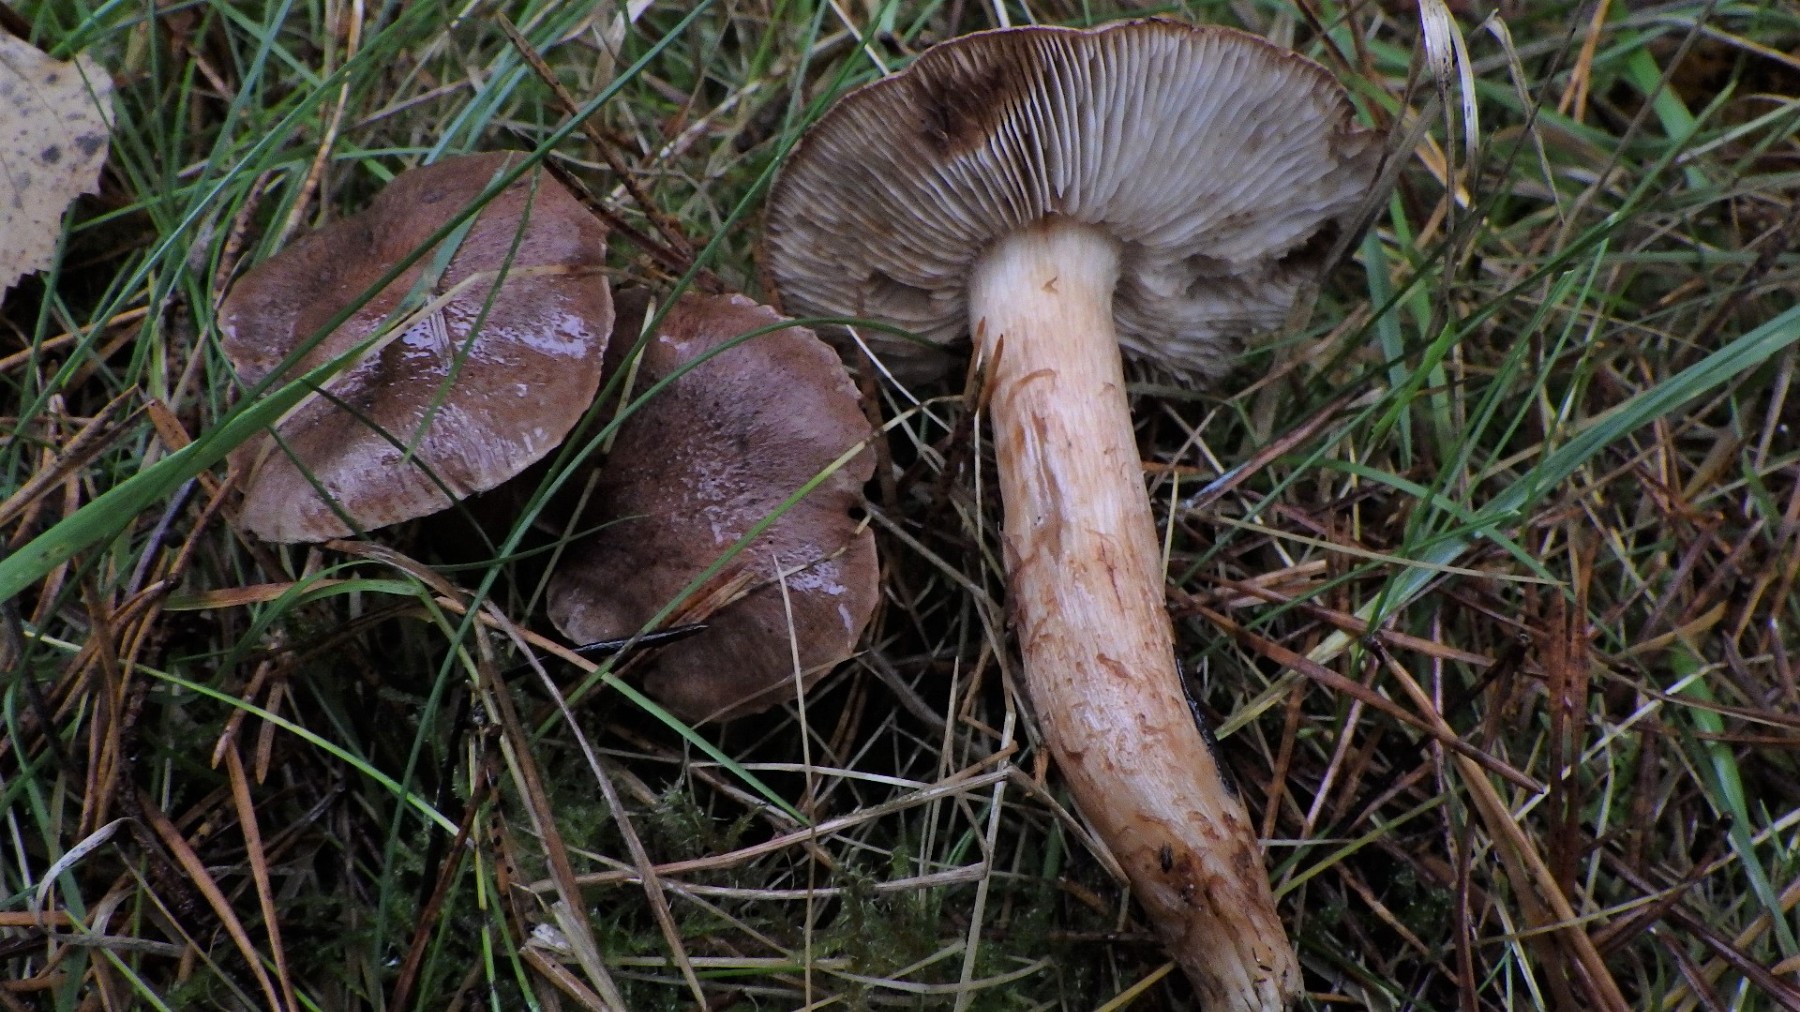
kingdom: Fungi
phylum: Basidiomycota
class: Agaricomycetes
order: Agaricales
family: Tricholomataceae
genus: Tricholoma
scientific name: Tricholoma albobrunneum
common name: kastanie-ridderhat
